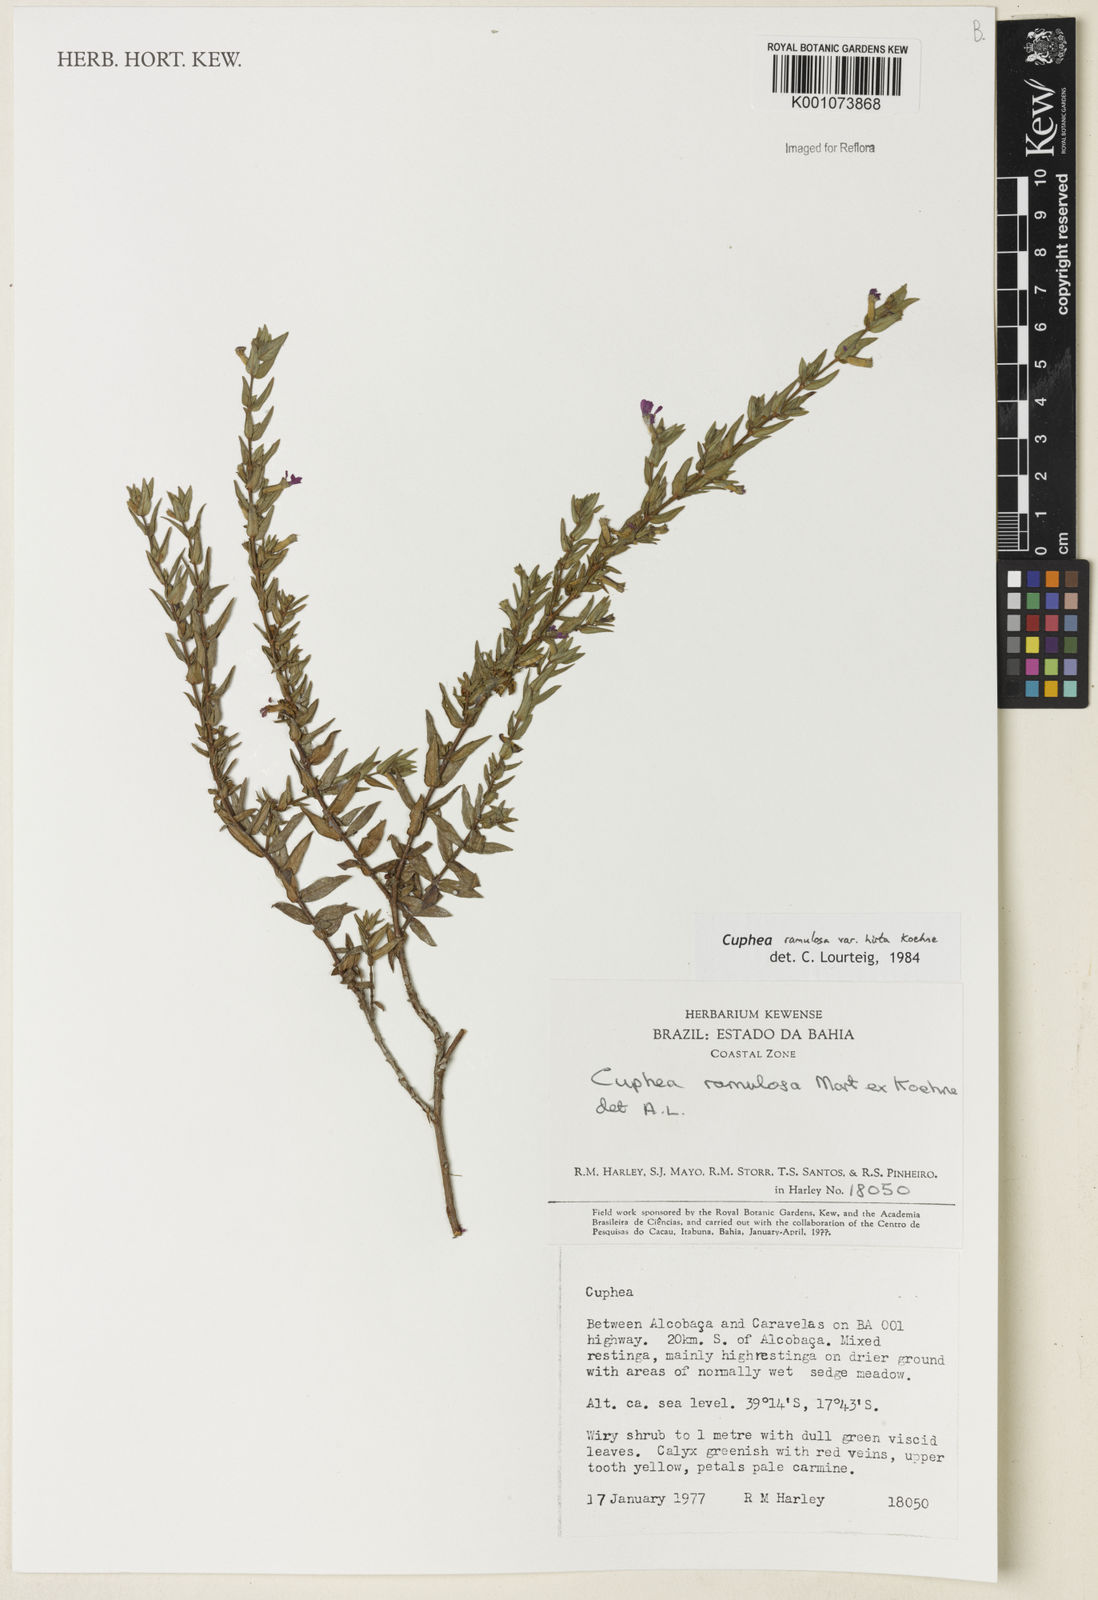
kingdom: Plantae
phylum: Tracheophyta
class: Magnoliopsida
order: Solanales
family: Solanaceae
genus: Schwenckia
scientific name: Schwenckia paniculata
